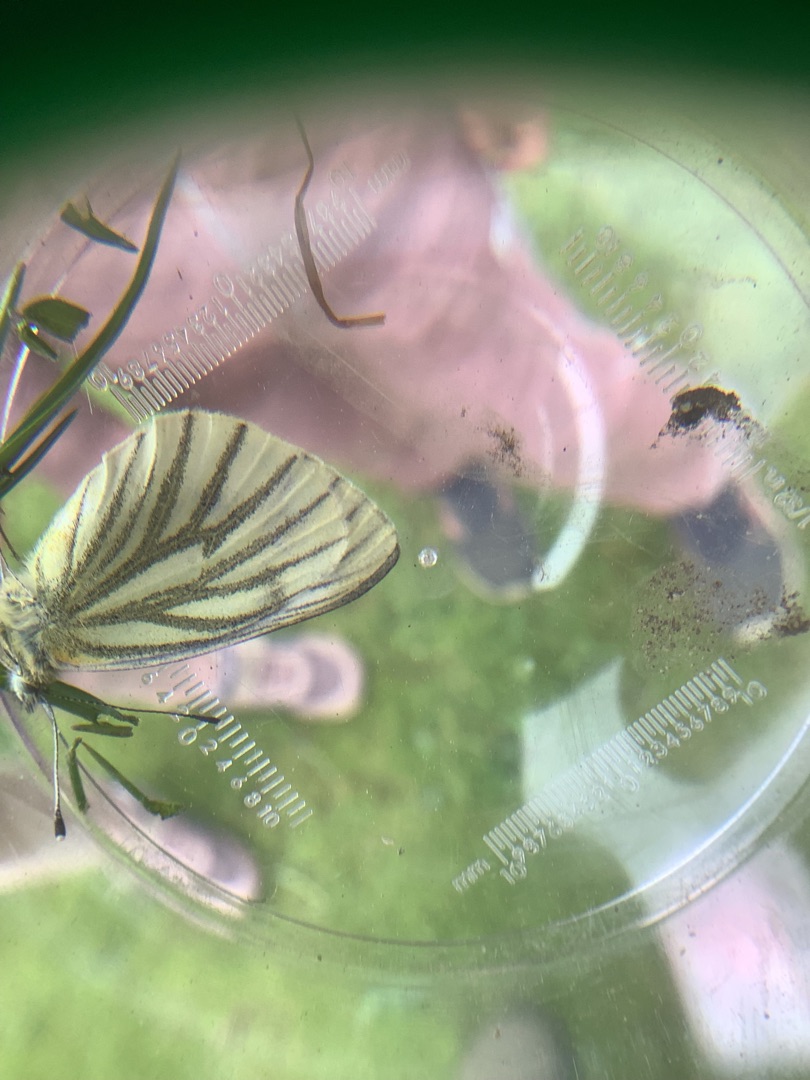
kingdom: Animalia
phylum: Arthropoda
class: Insecta
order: Lepidoptera
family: Pieridae
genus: Pieris
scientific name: Pieris napi
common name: Grønåret kålsommerfugl
